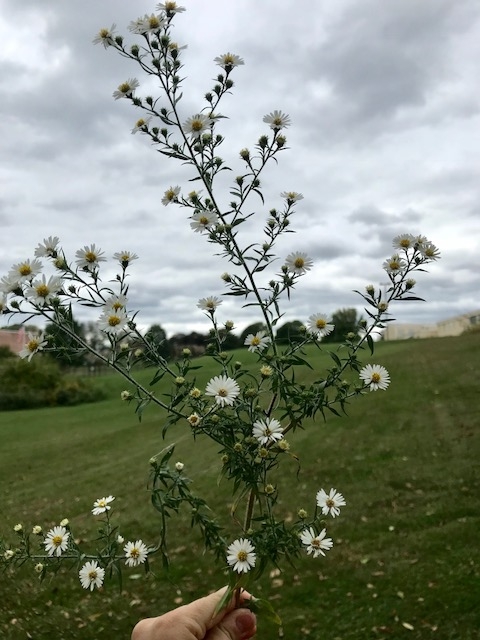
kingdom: Plantae
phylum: Tracheophyta
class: Magnoliopsida
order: Asterales
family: Asteraceae
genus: Symphyotrichum
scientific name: Symphyotrichum pilosum
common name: White Heath Aster
